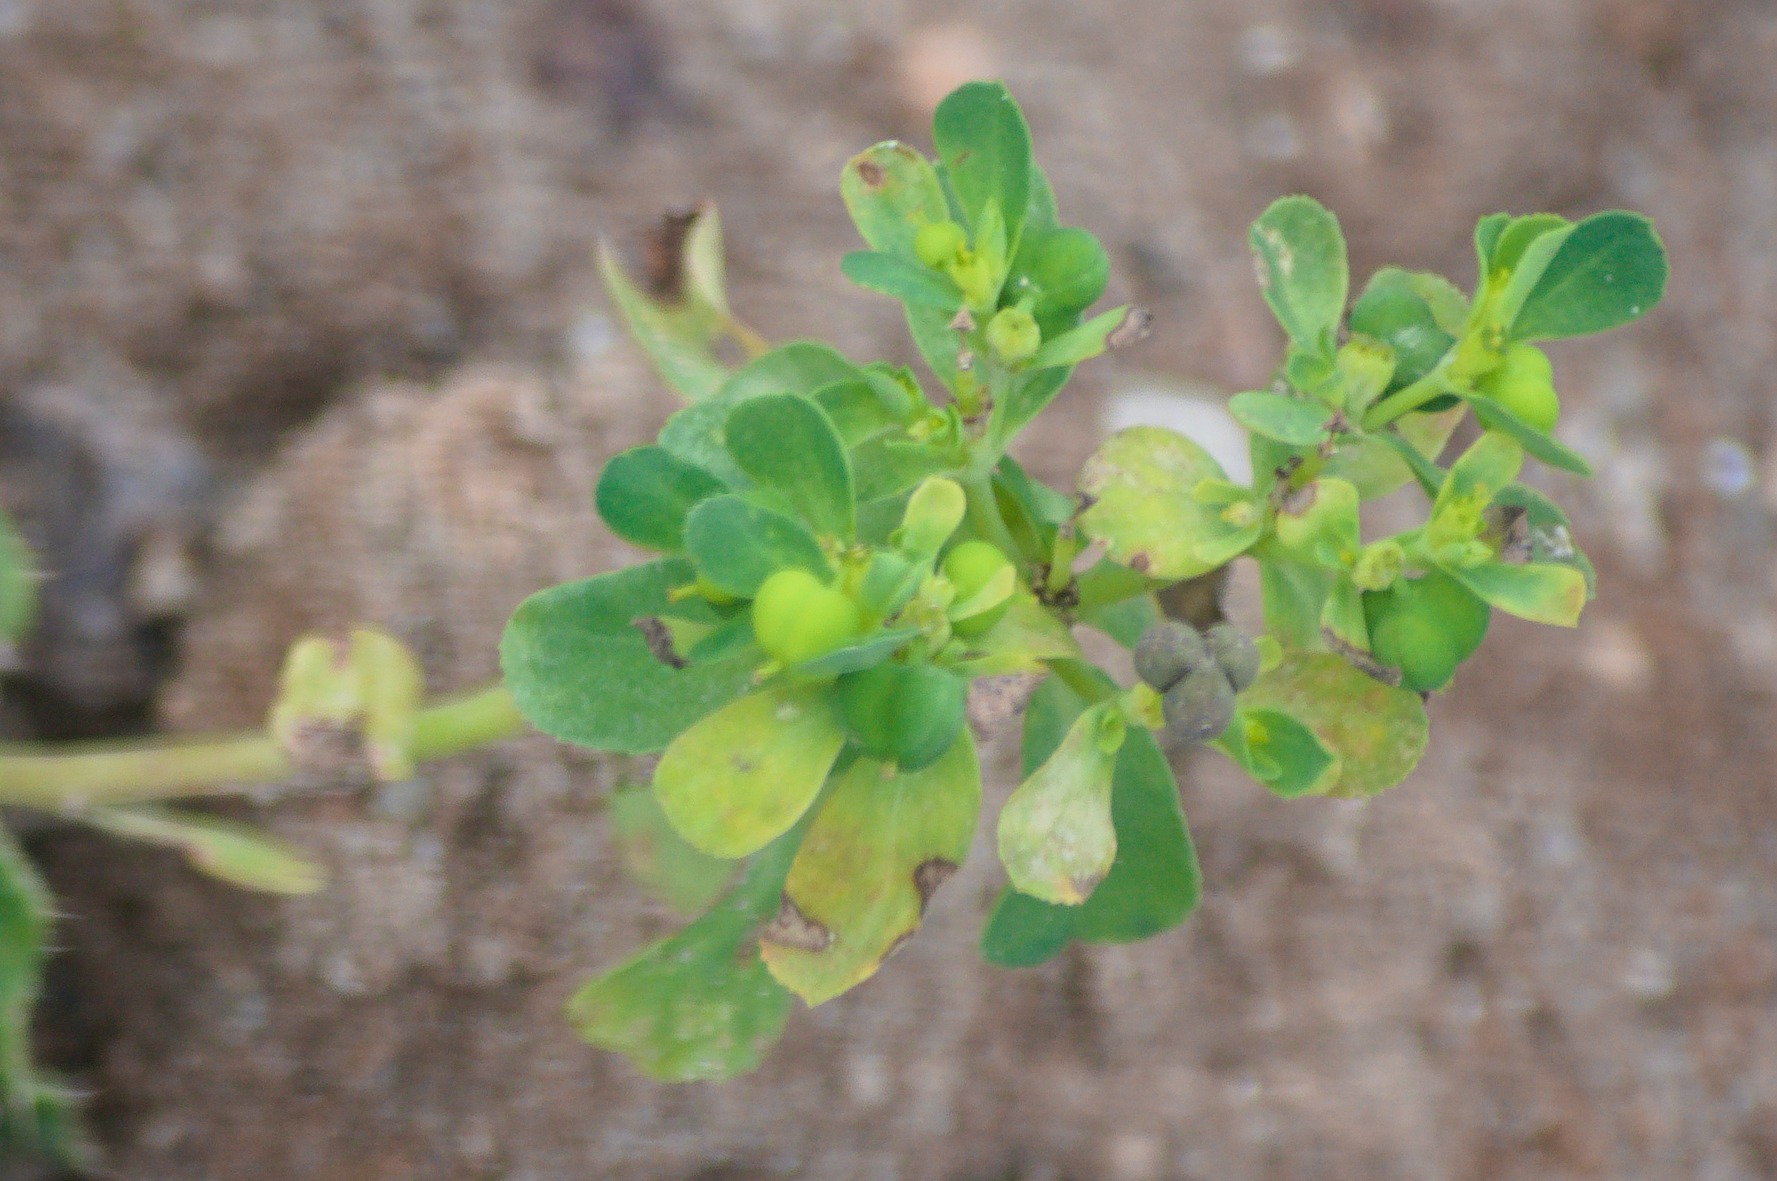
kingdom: Plantae
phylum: Tracheophyta
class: Magnoliopsida
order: Malpighiales
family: Euphorbiaceae
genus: Euphorbia
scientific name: Euphorbia helioscopia
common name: Skærm-vortemælk
